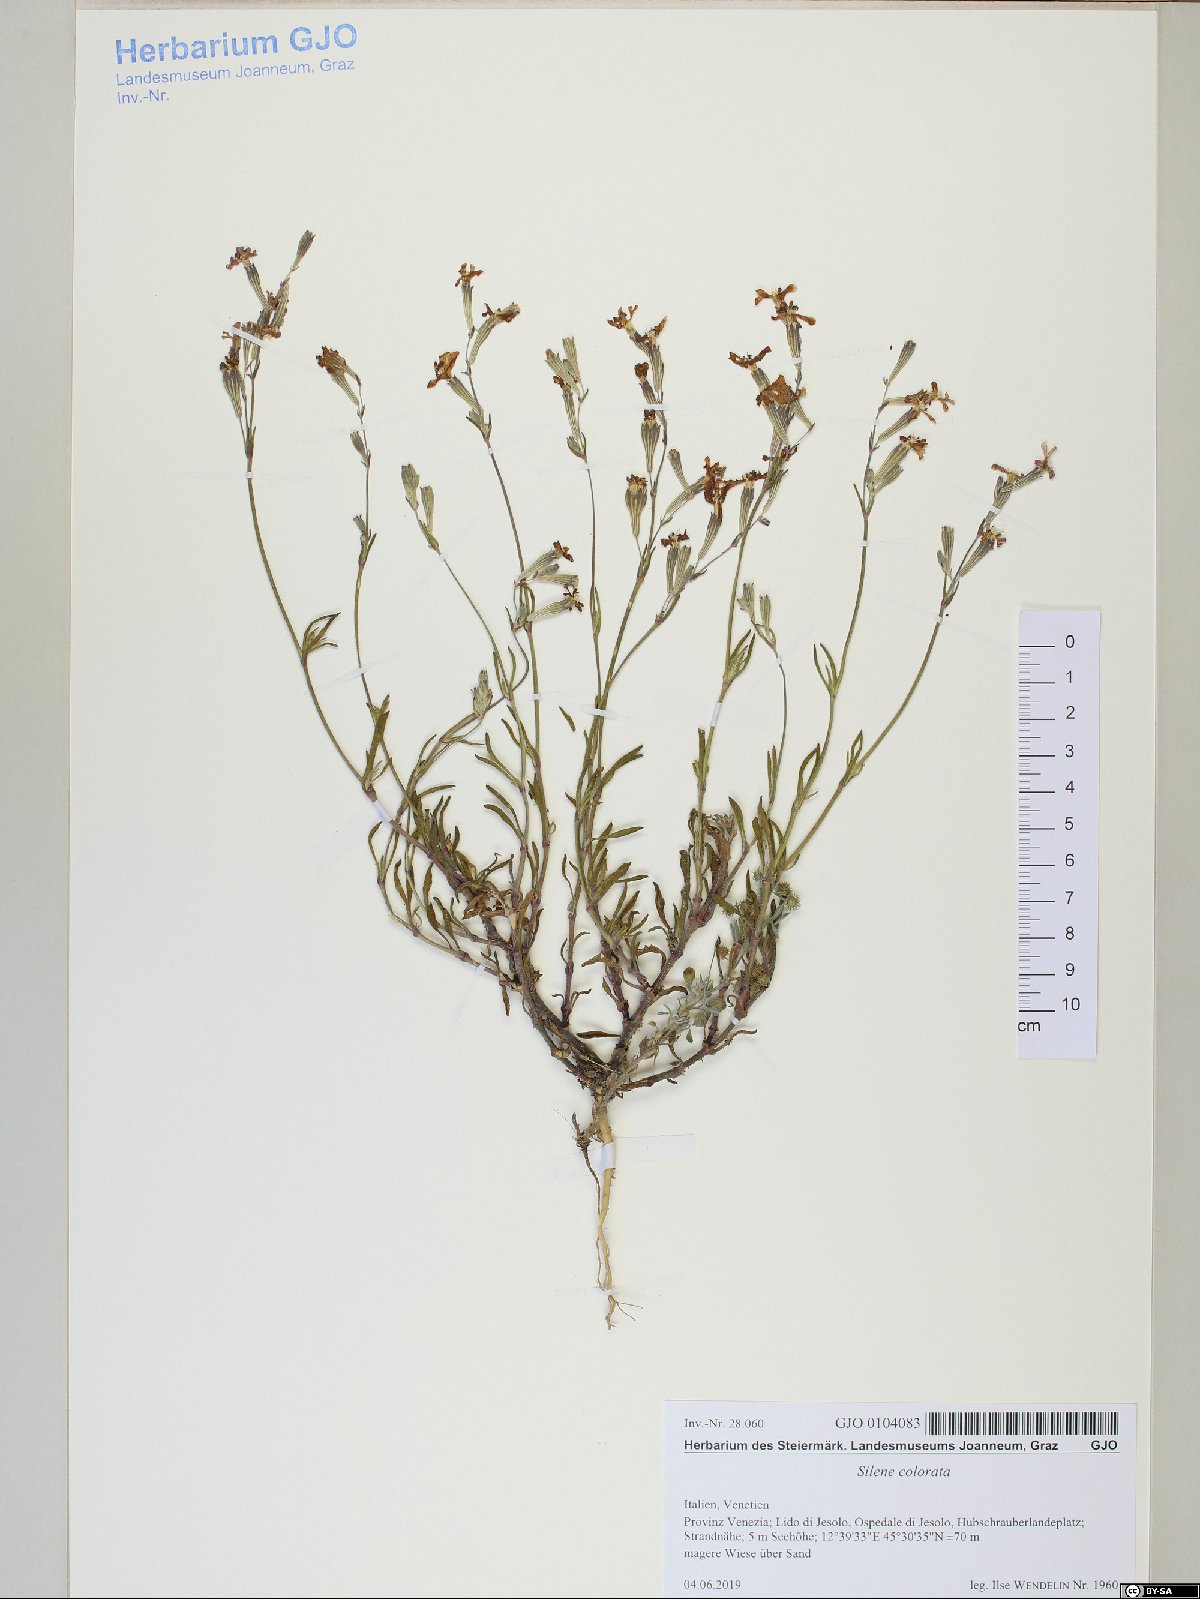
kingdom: Plantae
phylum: Tracheophyta
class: Magnoliopsida
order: Caryophyllales
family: Caryophyllaceae
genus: Silene
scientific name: Silene colorata
